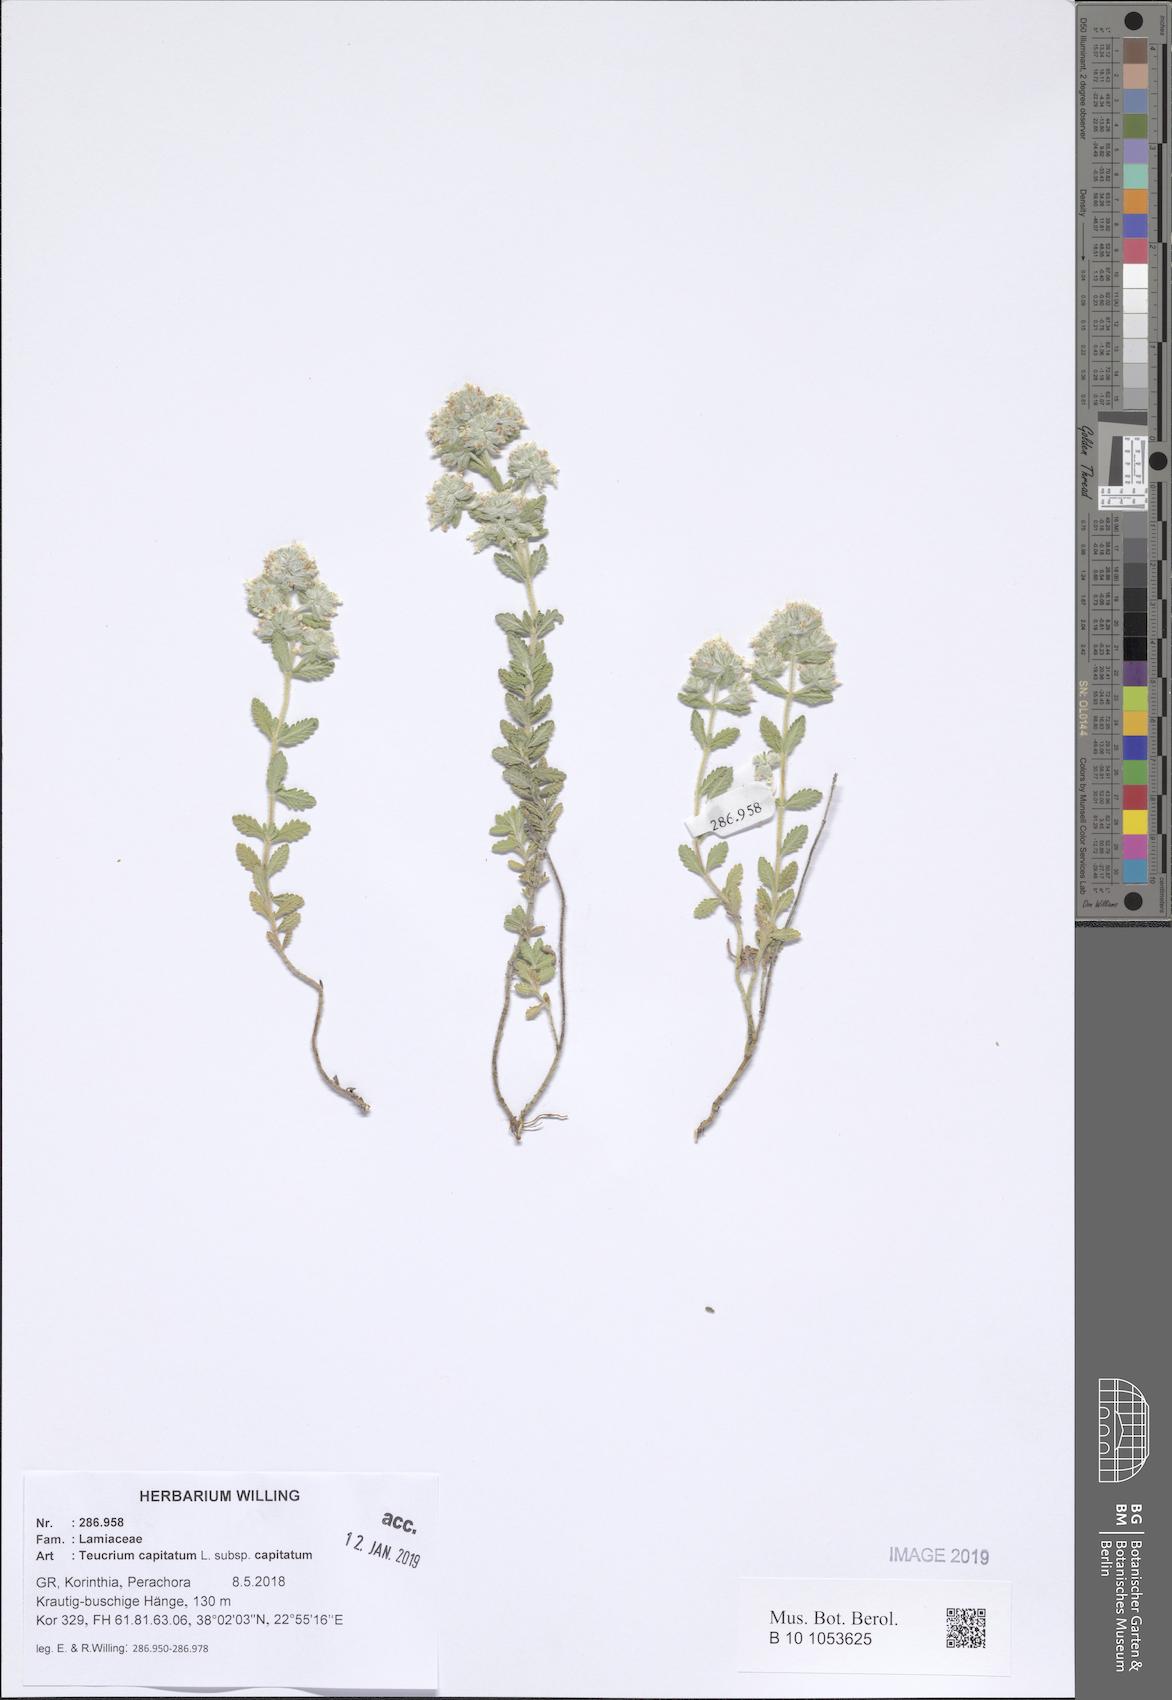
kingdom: Plantae
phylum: Tracheophyta
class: Magnoliopsida
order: Lamiales
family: Lamiaceae
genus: Teucrium
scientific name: Teucrium capitatum
